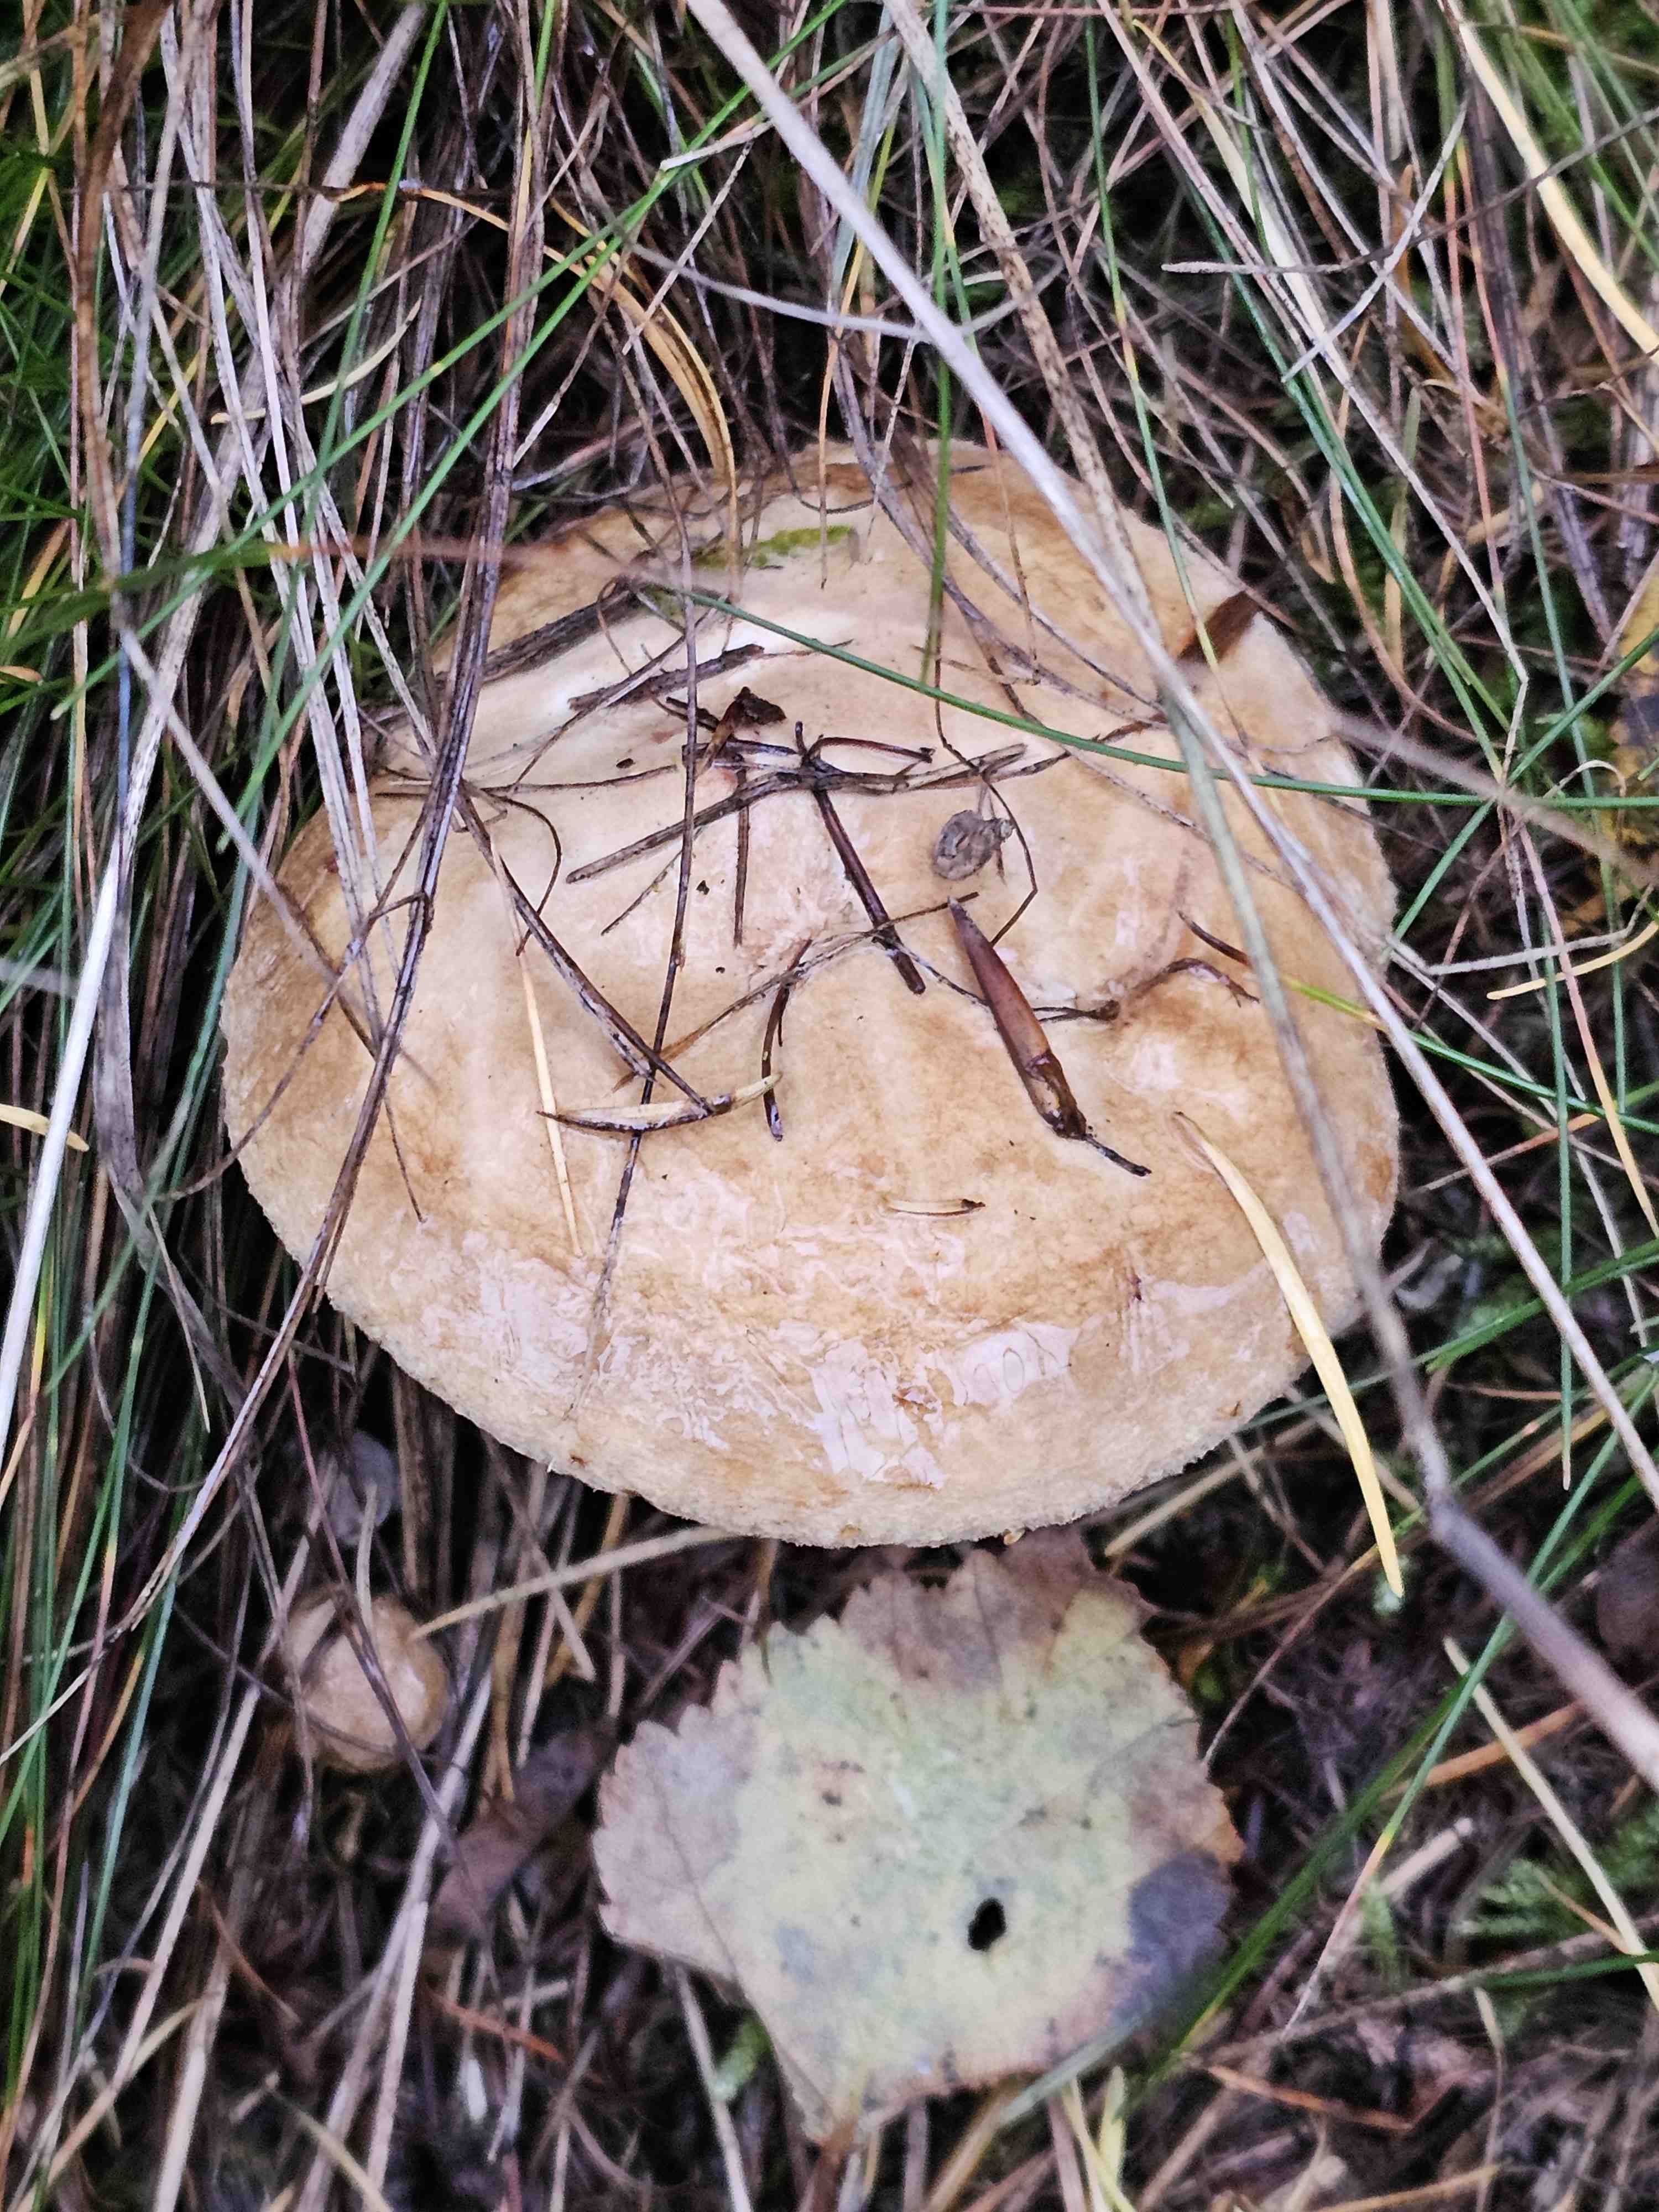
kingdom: Fungi
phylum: Basidiomycota
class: Agaricomycetes
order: Boletales
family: Paxillaceae
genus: Paxillus
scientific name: Paxillus involutus
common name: almindelig netbladhat
